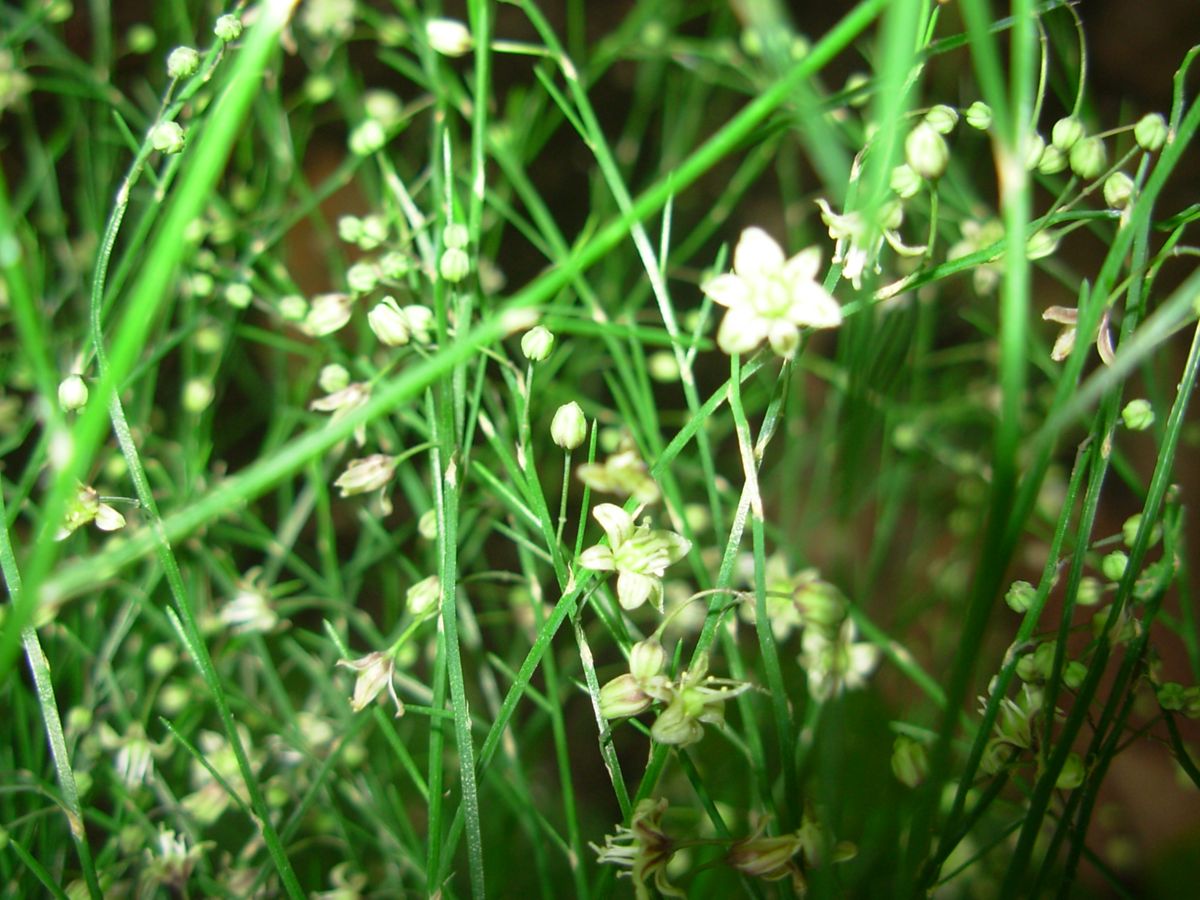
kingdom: Plantae
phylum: Tracheophyta
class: Liliopsida
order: Asparagales
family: Asparagaceae
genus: Asparagus
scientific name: Asparagus plocamoides
